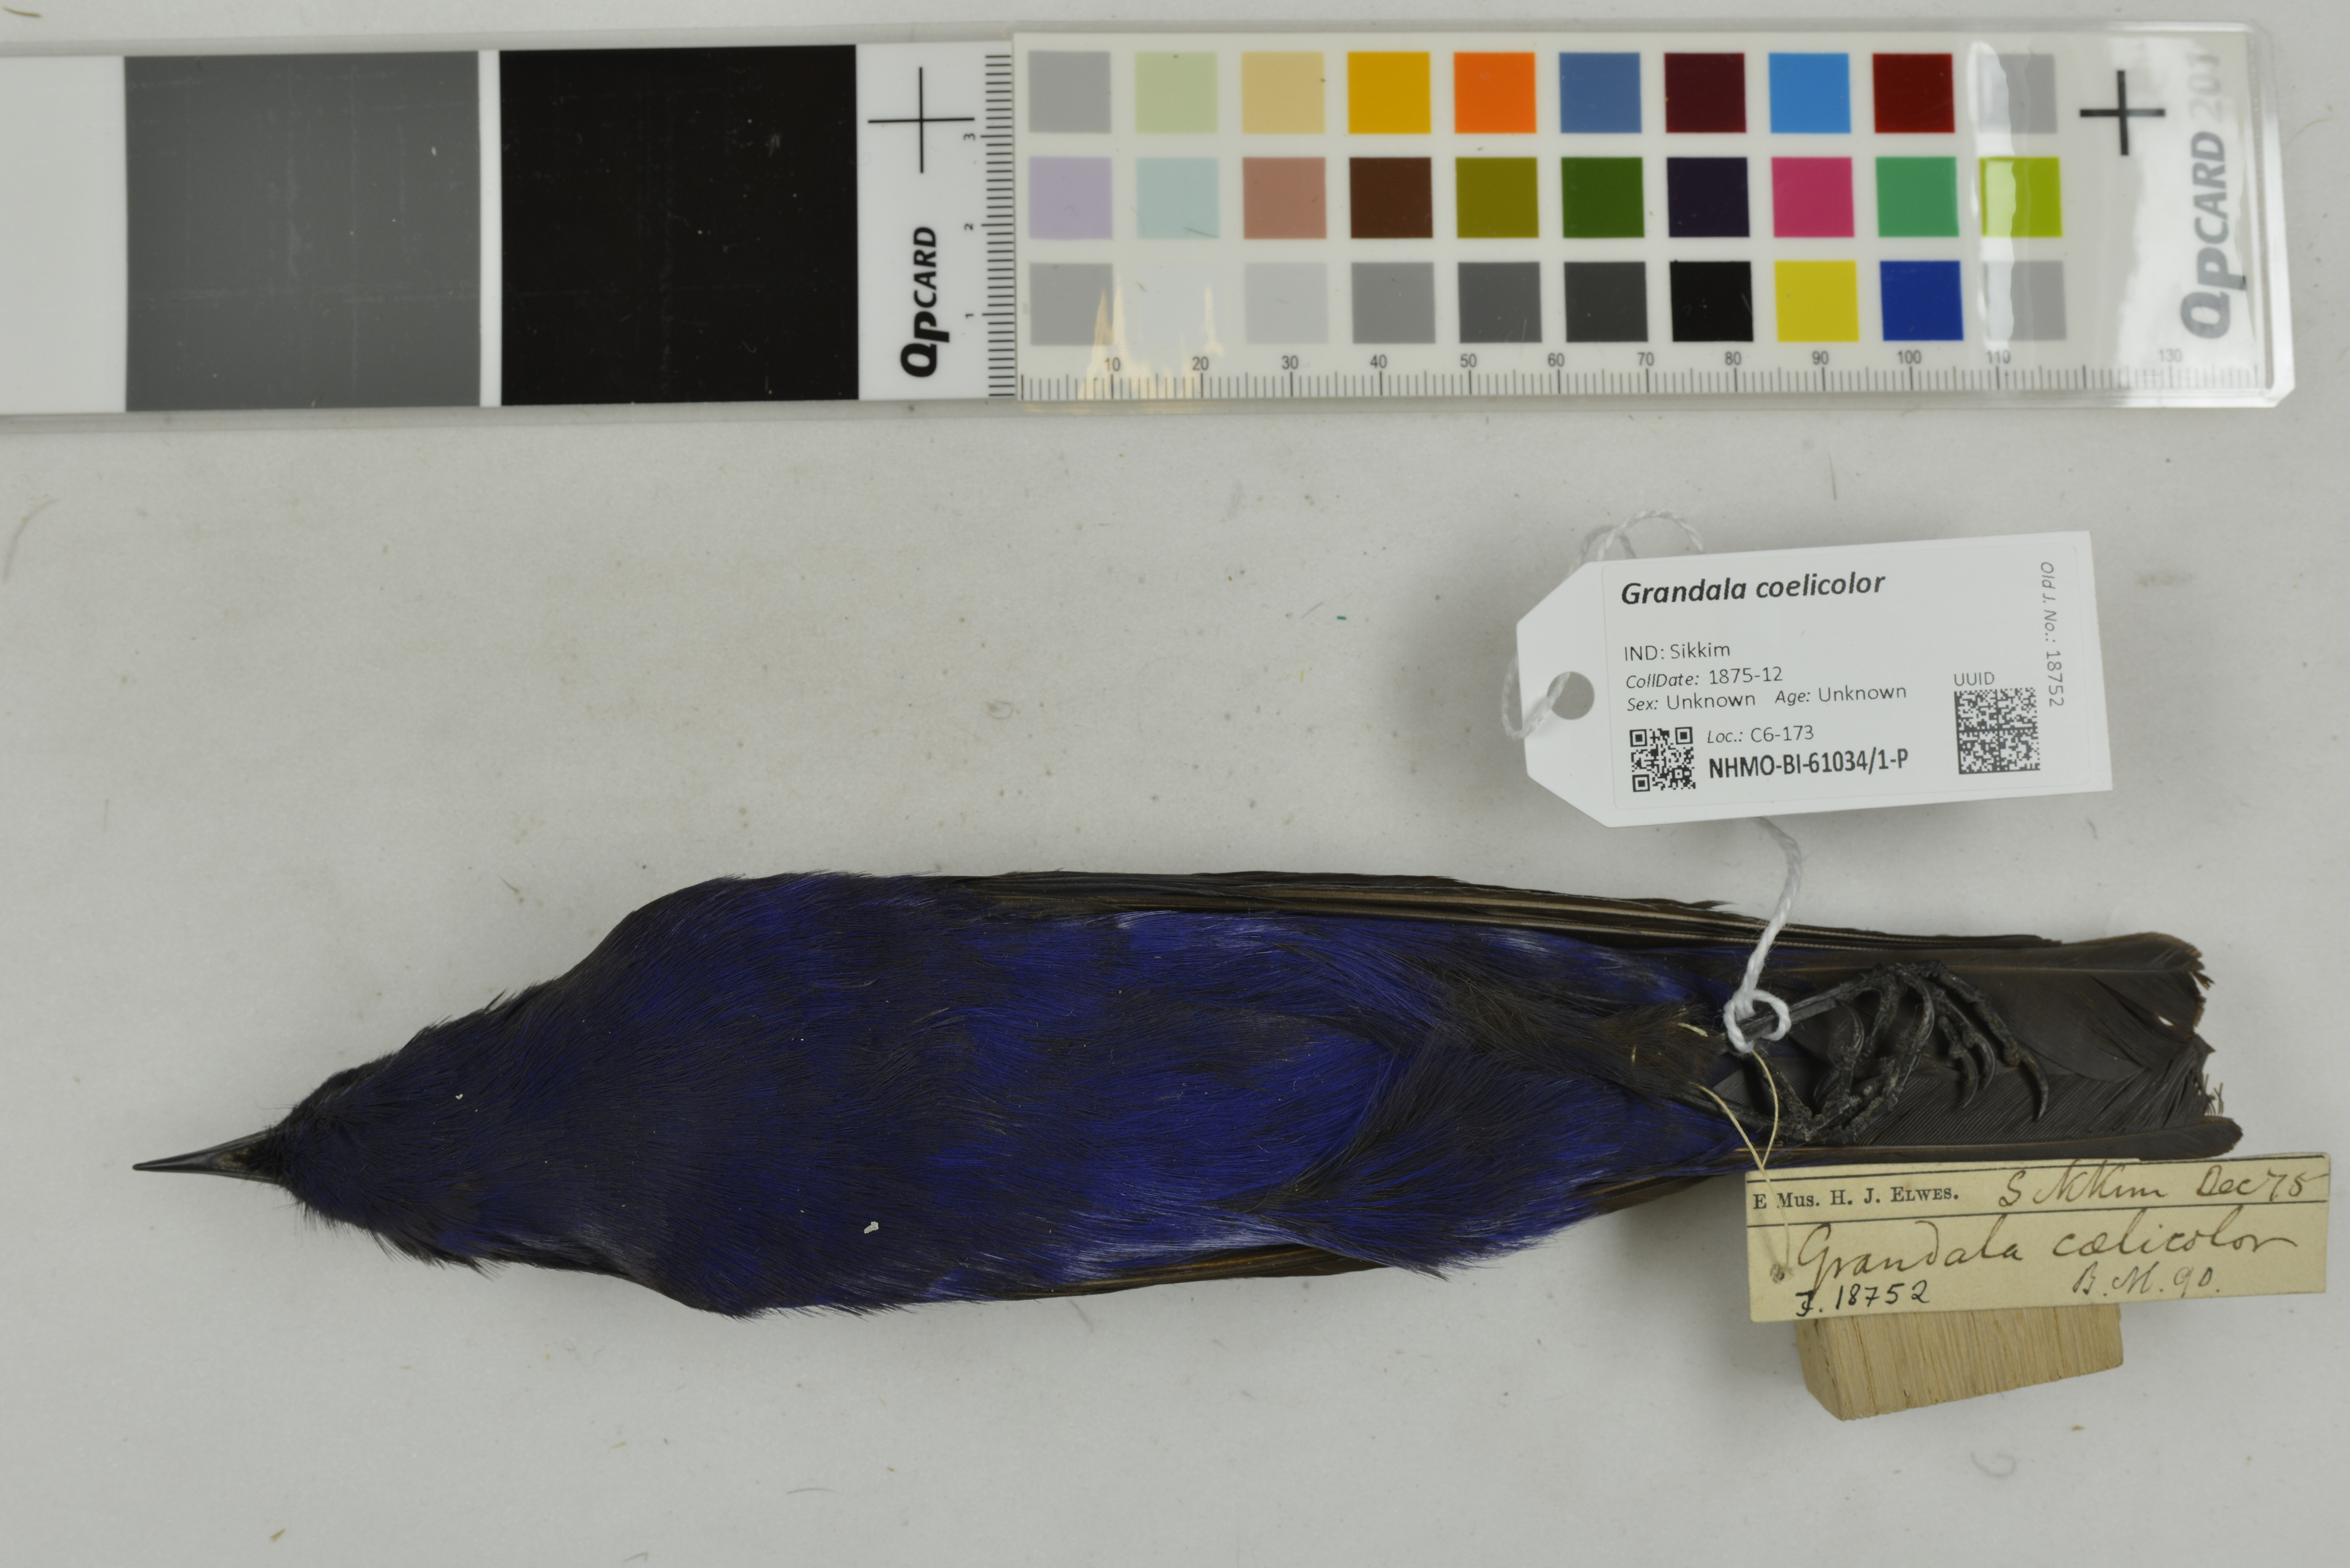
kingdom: Animalia
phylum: Chordata
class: Aves
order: Passeriformes
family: Muscicapidae
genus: Grandala
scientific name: Grandala coelicolor
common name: Grandala
